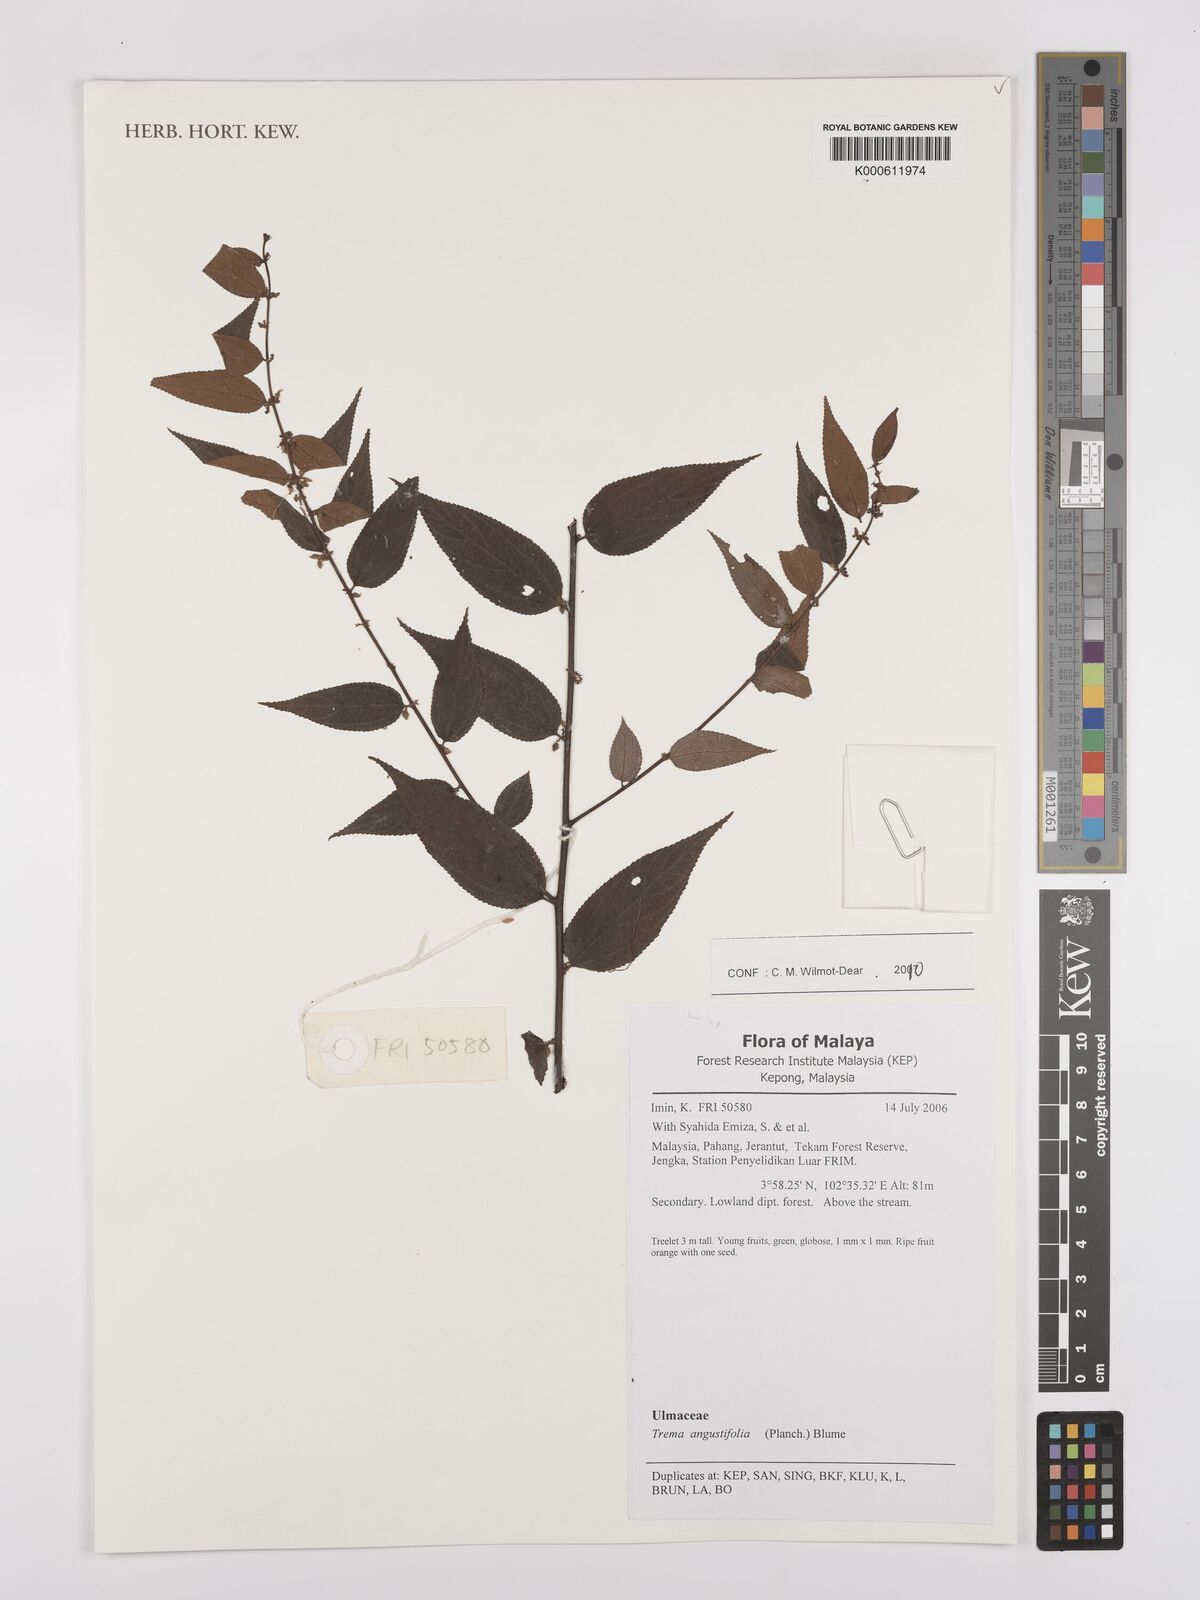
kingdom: Plantae
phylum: Tracheophyta
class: Magnoliopsida
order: Rosales
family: Cannabaceae
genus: Trema
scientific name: Trema angustifolium
